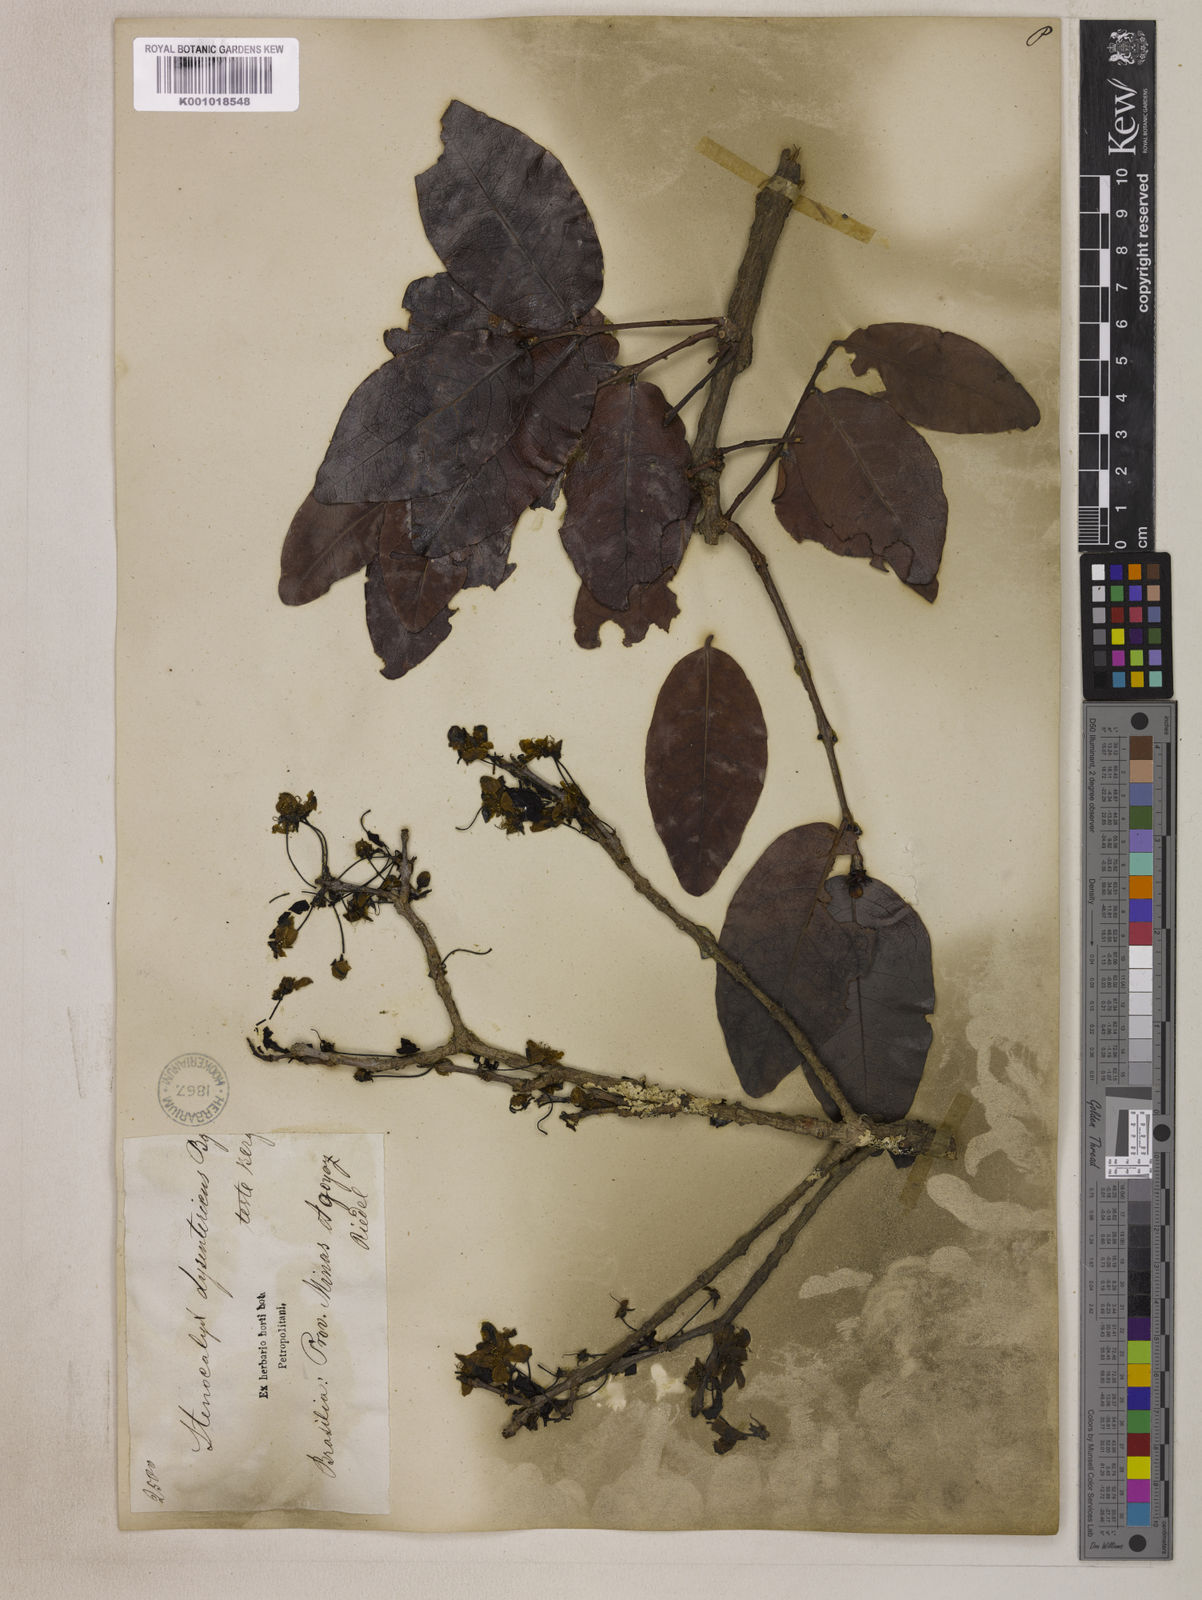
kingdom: Plantae
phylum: Tracheophyta
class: Magnoliopsida
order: Myrtales
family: Myrtaceae
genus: Eugenia
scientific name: Eugenia dysenterica
